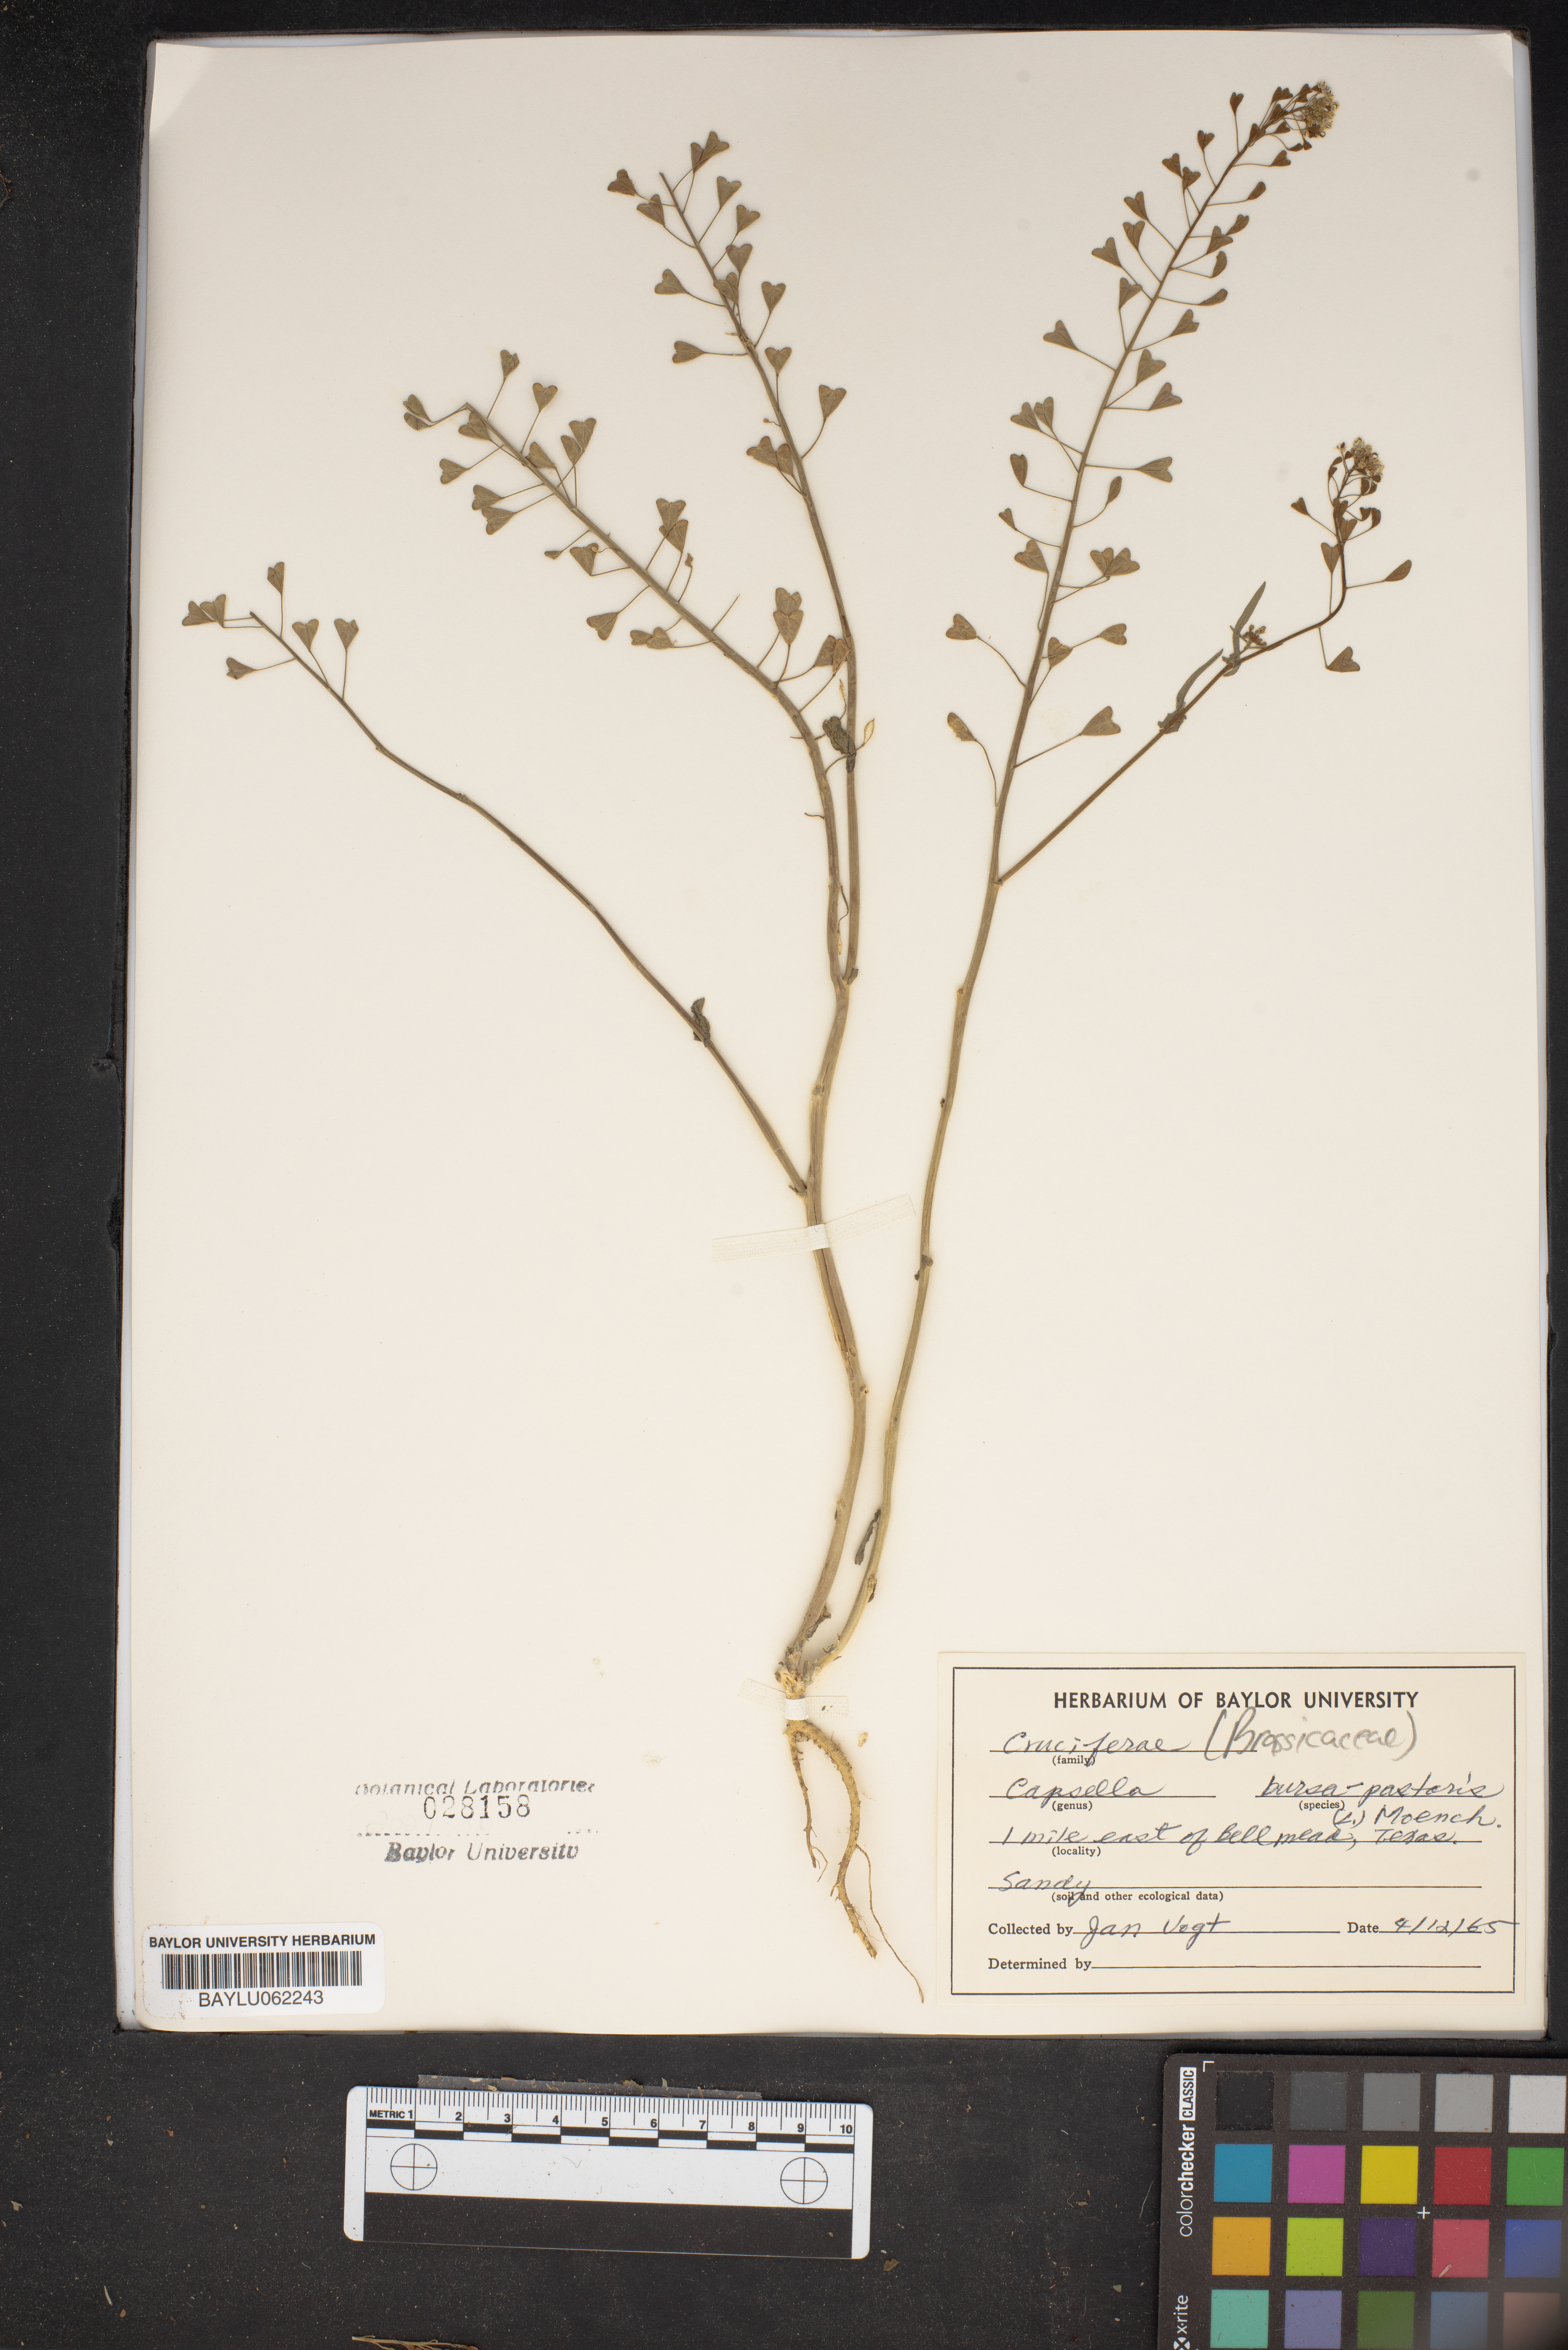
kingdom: Plantae
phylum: Tracheophyta
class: Magnoliopsida
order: Brassicales
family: Brassicaceae
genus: Capsella
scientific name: Capsella bursa-pastoris
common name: Shepherd's purse
